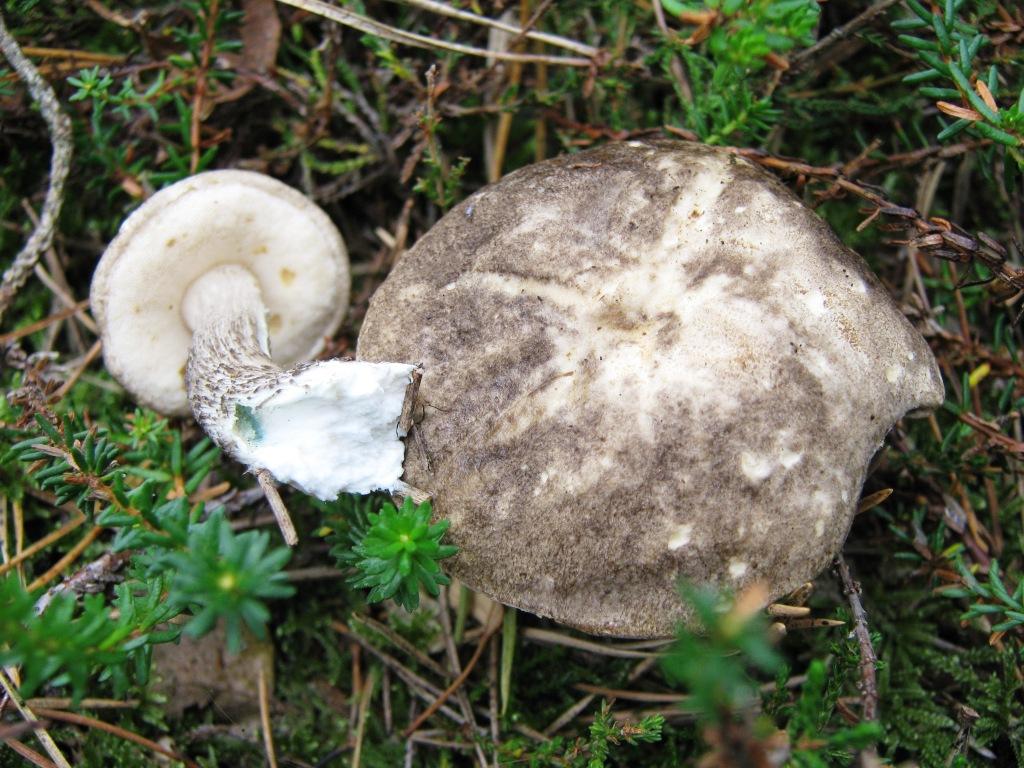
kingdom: Fungi
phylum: Basidiomycota
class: Agaricomycetes
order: Boletales
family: Boletaceae
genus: Leccinum
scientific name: Leccinum variicolor
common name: flammet skælrørhat
